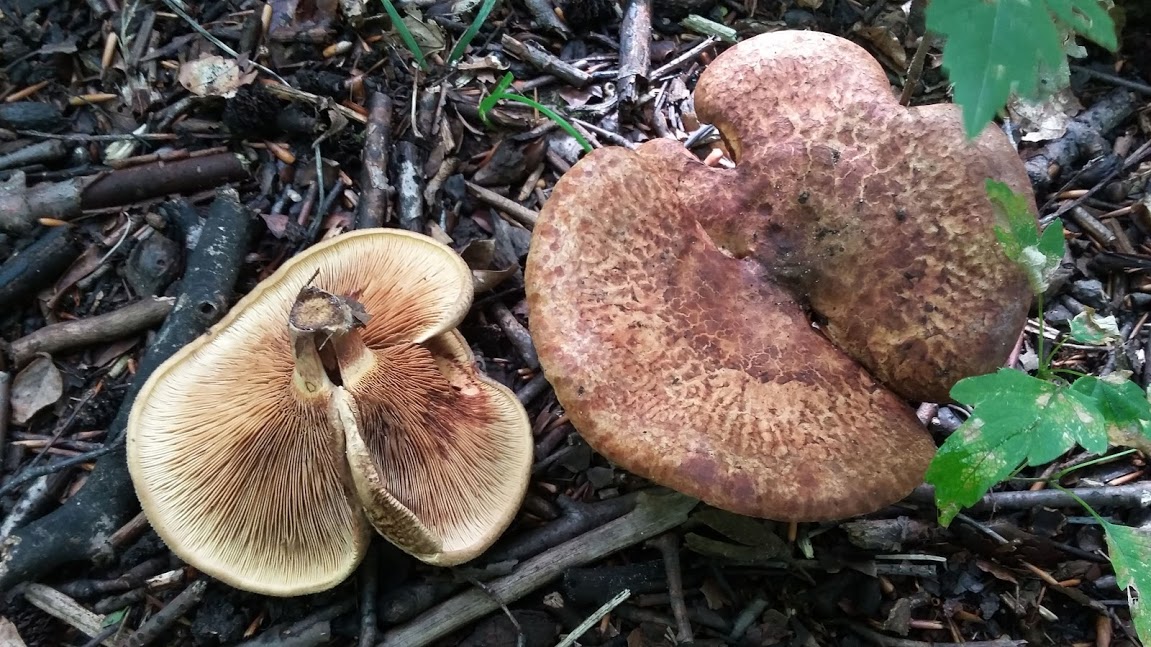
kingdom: Fungi
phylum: Basidiomycota
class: Agaricomycetes
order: Boletales
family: Paxillaceae
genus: Paxillus
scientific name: Paxillus rubicundulus
